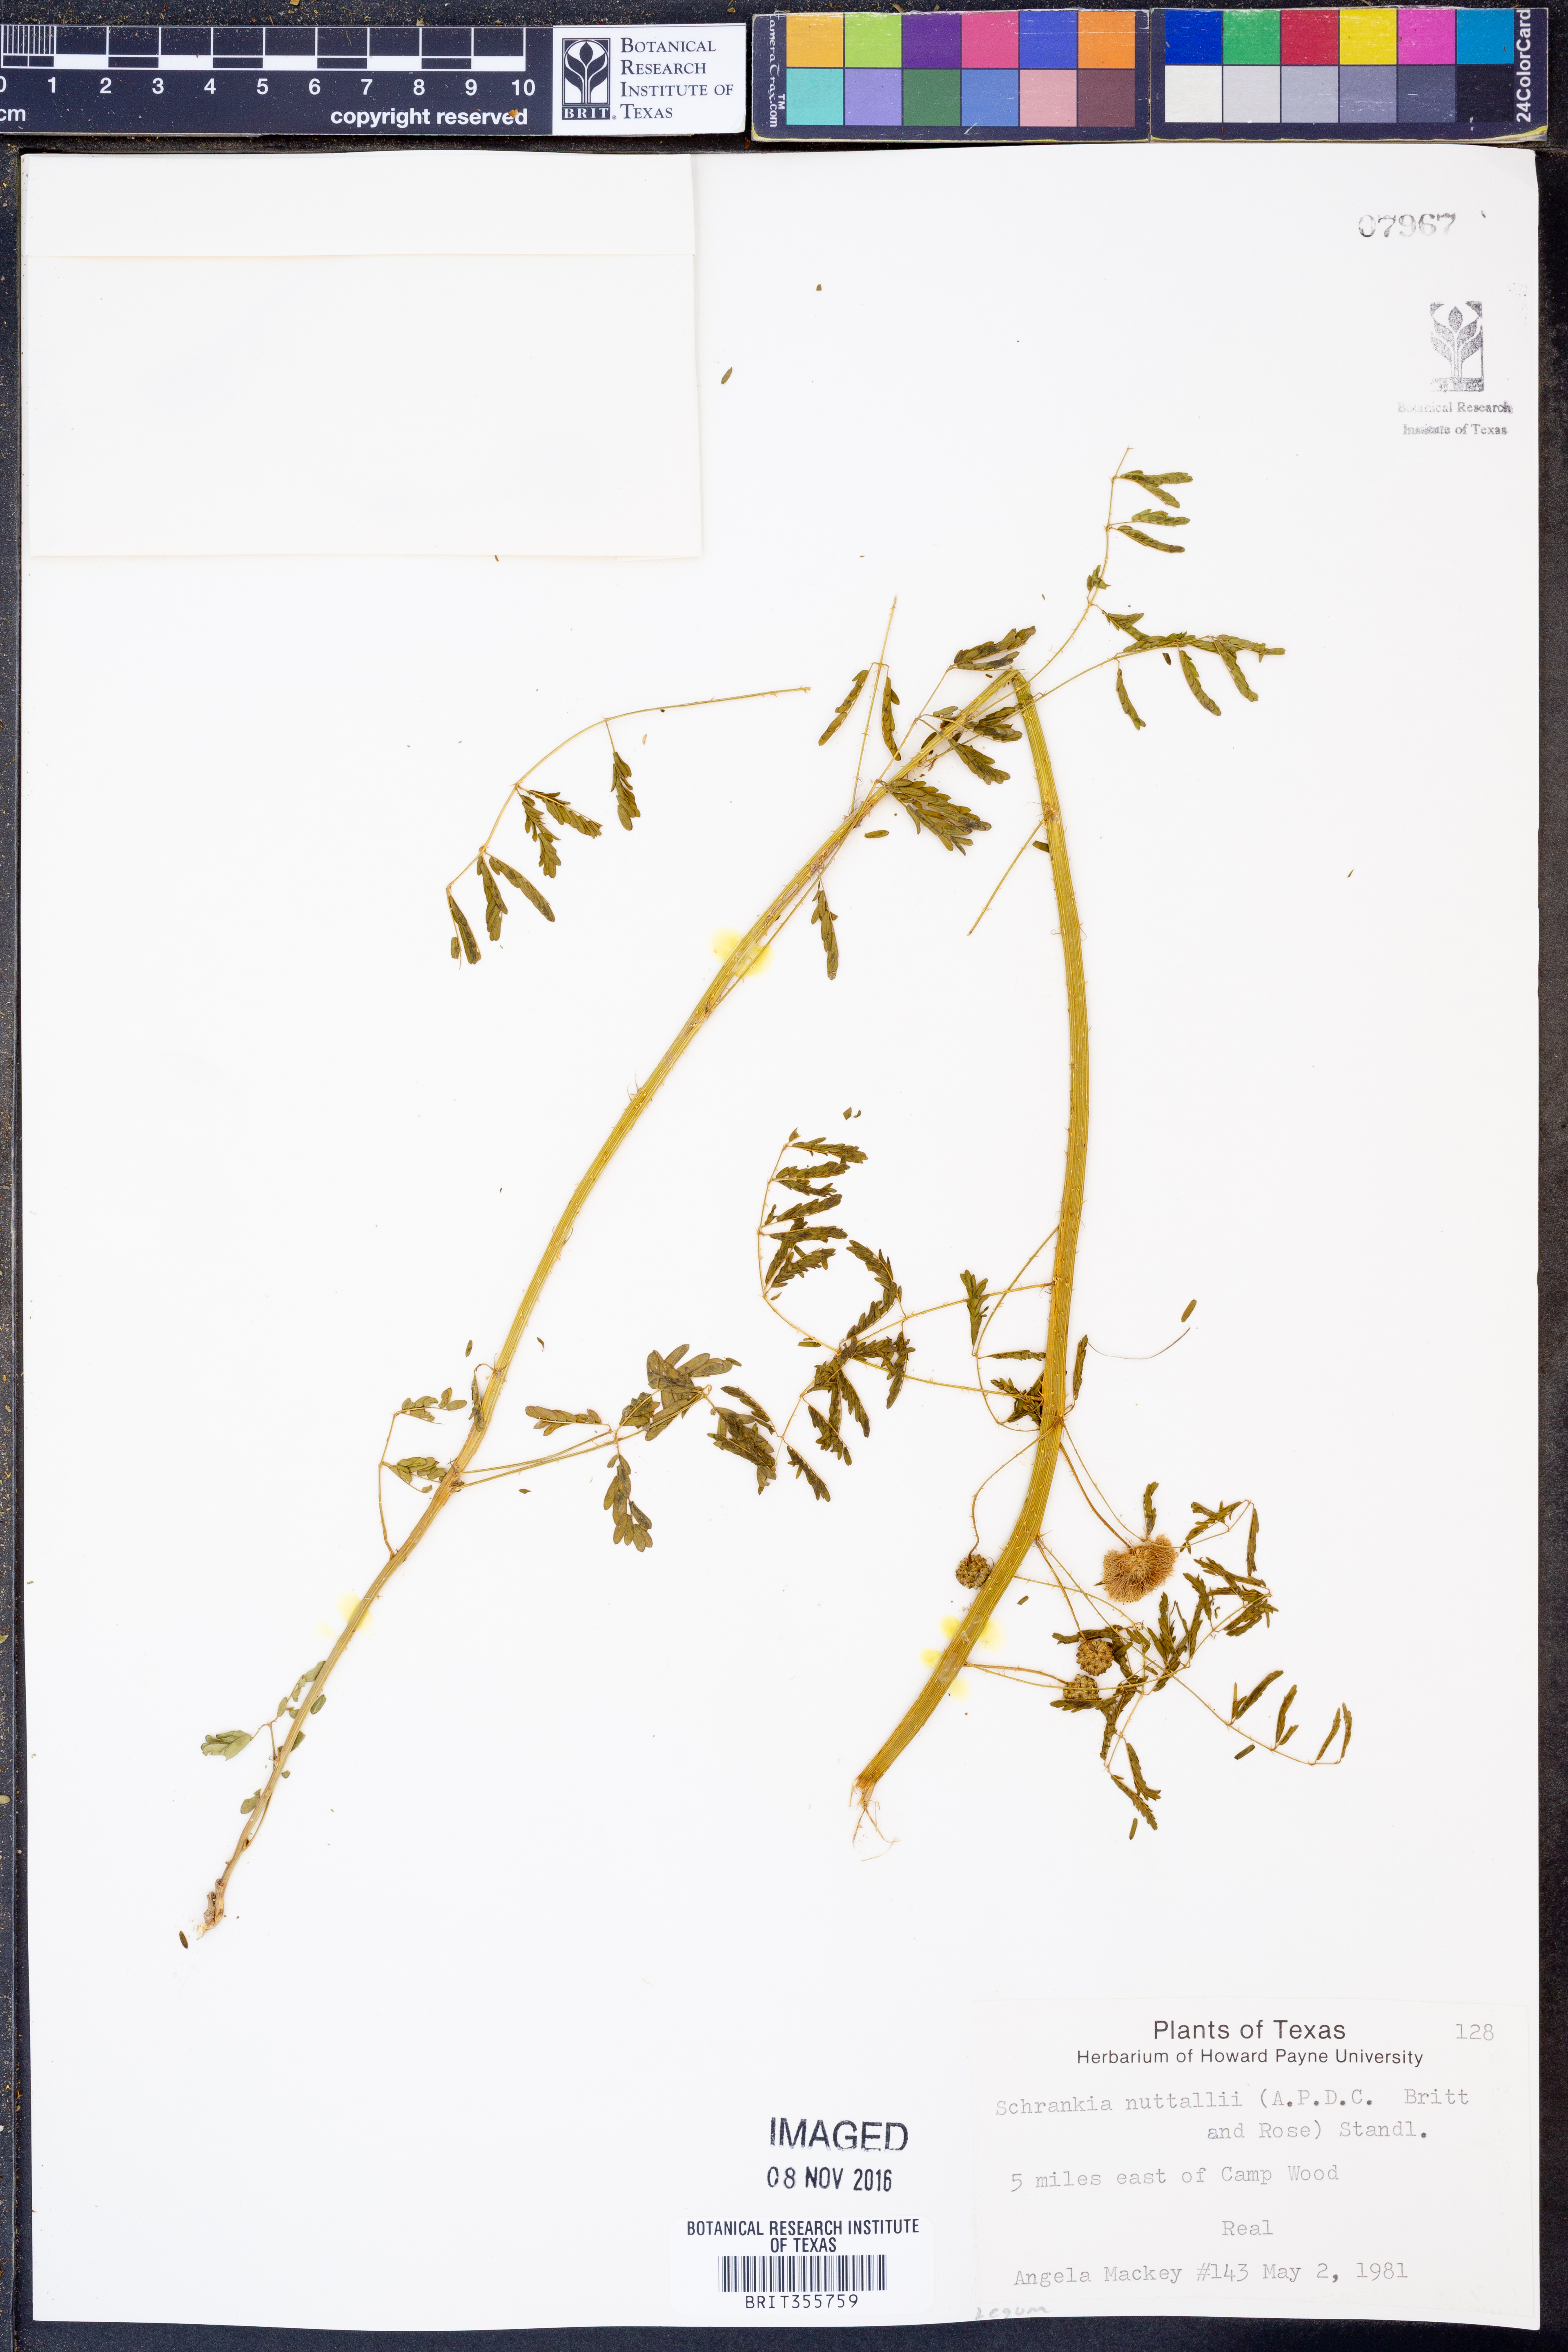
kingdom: Plantae
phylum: Tracheophyta
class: Magnoliopsida
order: Fabales
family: Fabaceae
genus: Mimosa
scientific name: Mimosa quadrivalvis
